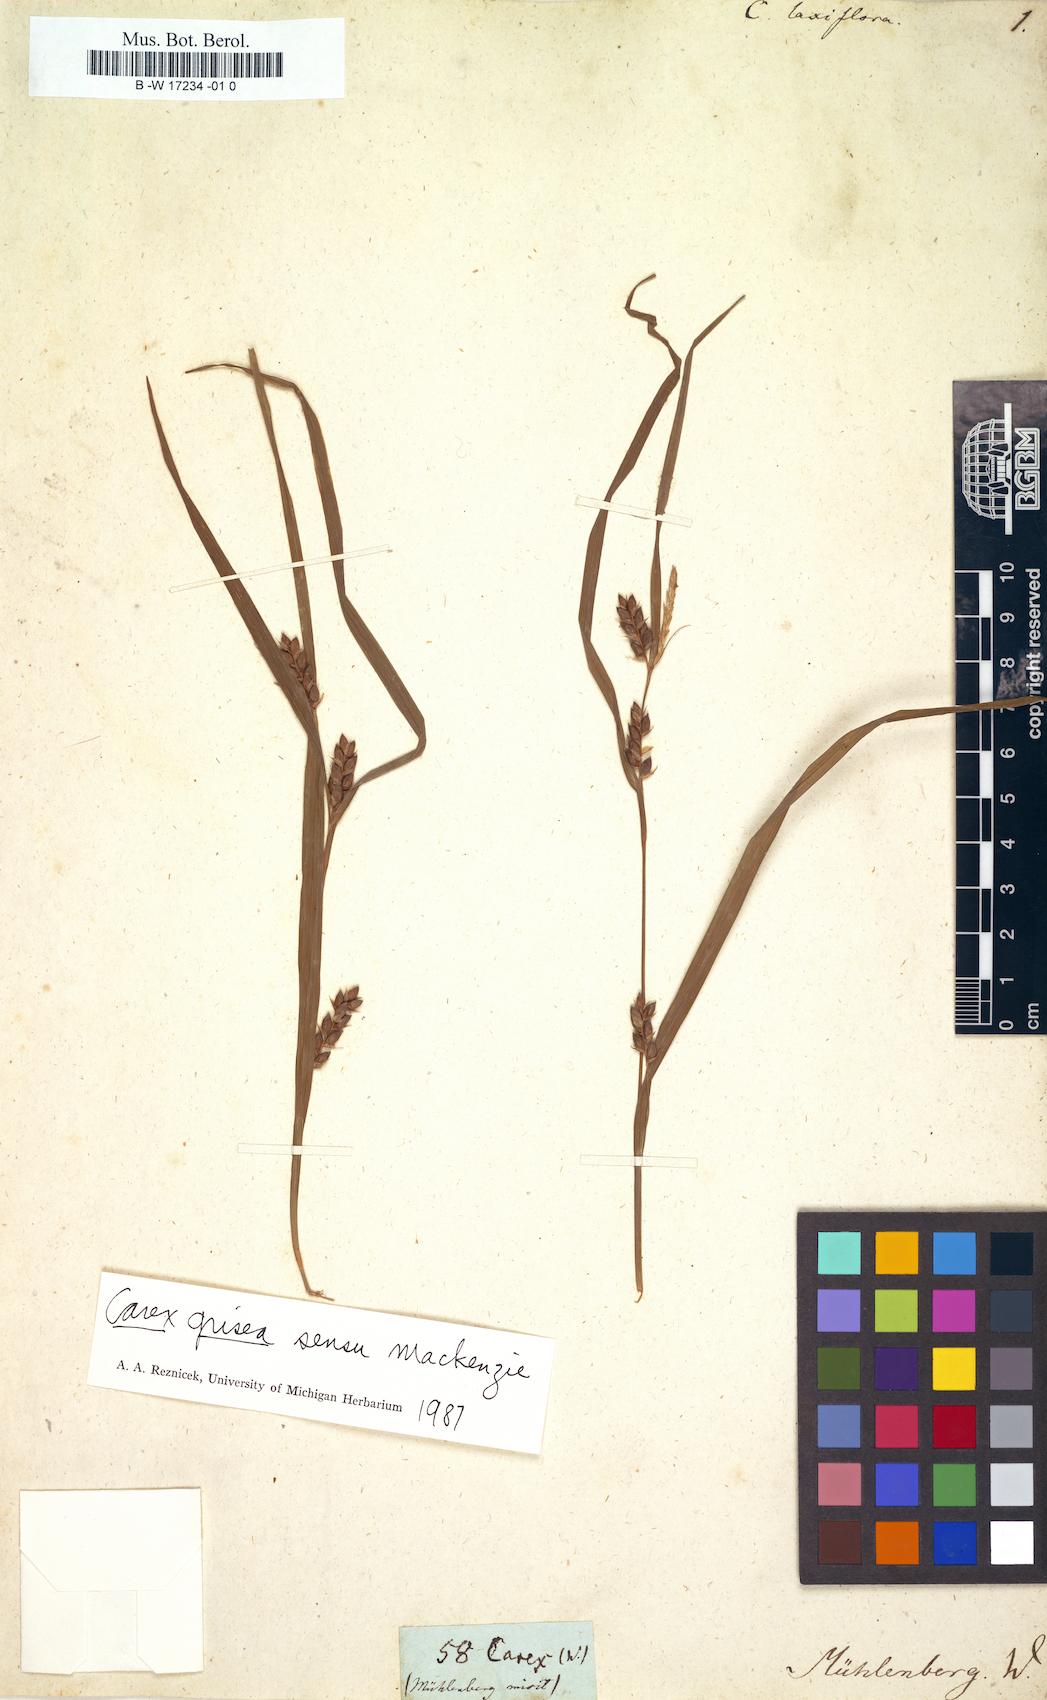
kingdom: Plantae
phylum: Tracheophyta
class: Liliopsida
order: Poales
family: Cyperaceae
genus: Carex
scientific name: Carex laxiflora
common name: Beech wood sedge
